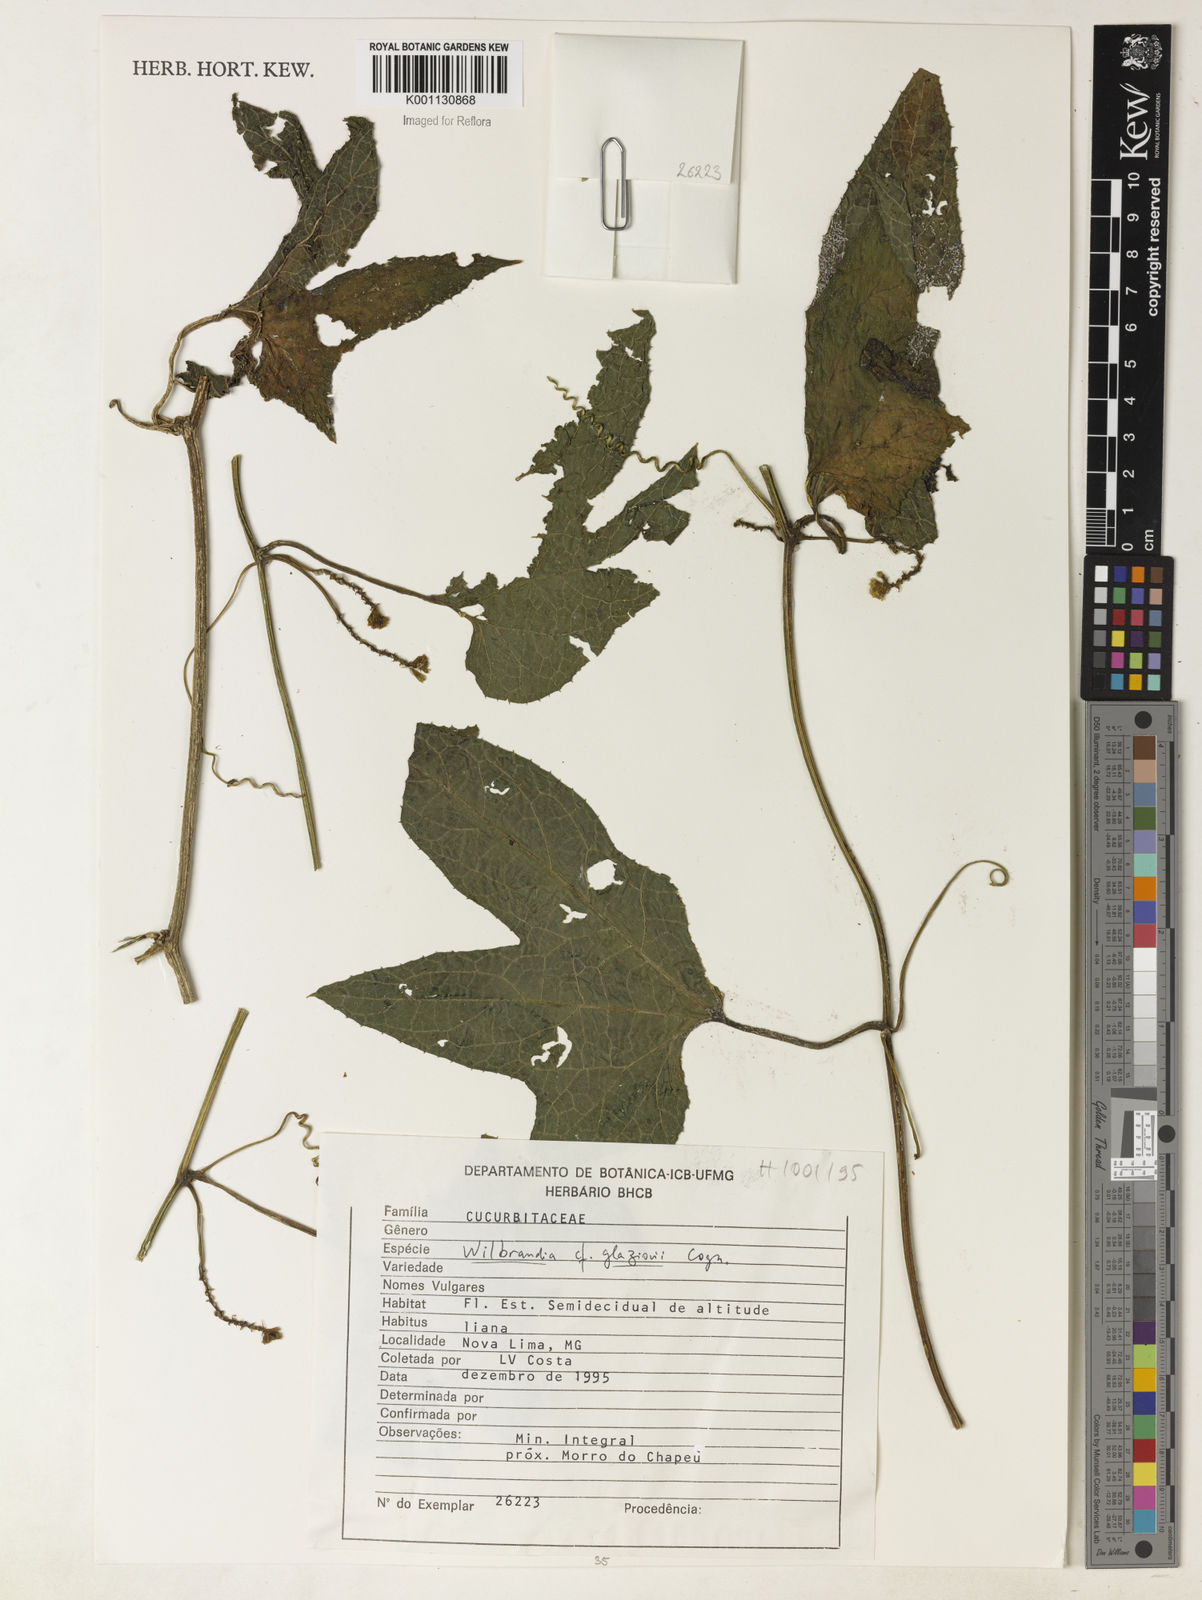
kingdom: Plantae
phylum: Tracheophyta
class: Magnoliopsida
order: Cucurbitales
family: Cucurbitaceae
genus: Wilbrandia
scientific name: Wilbrandia glaziovii
